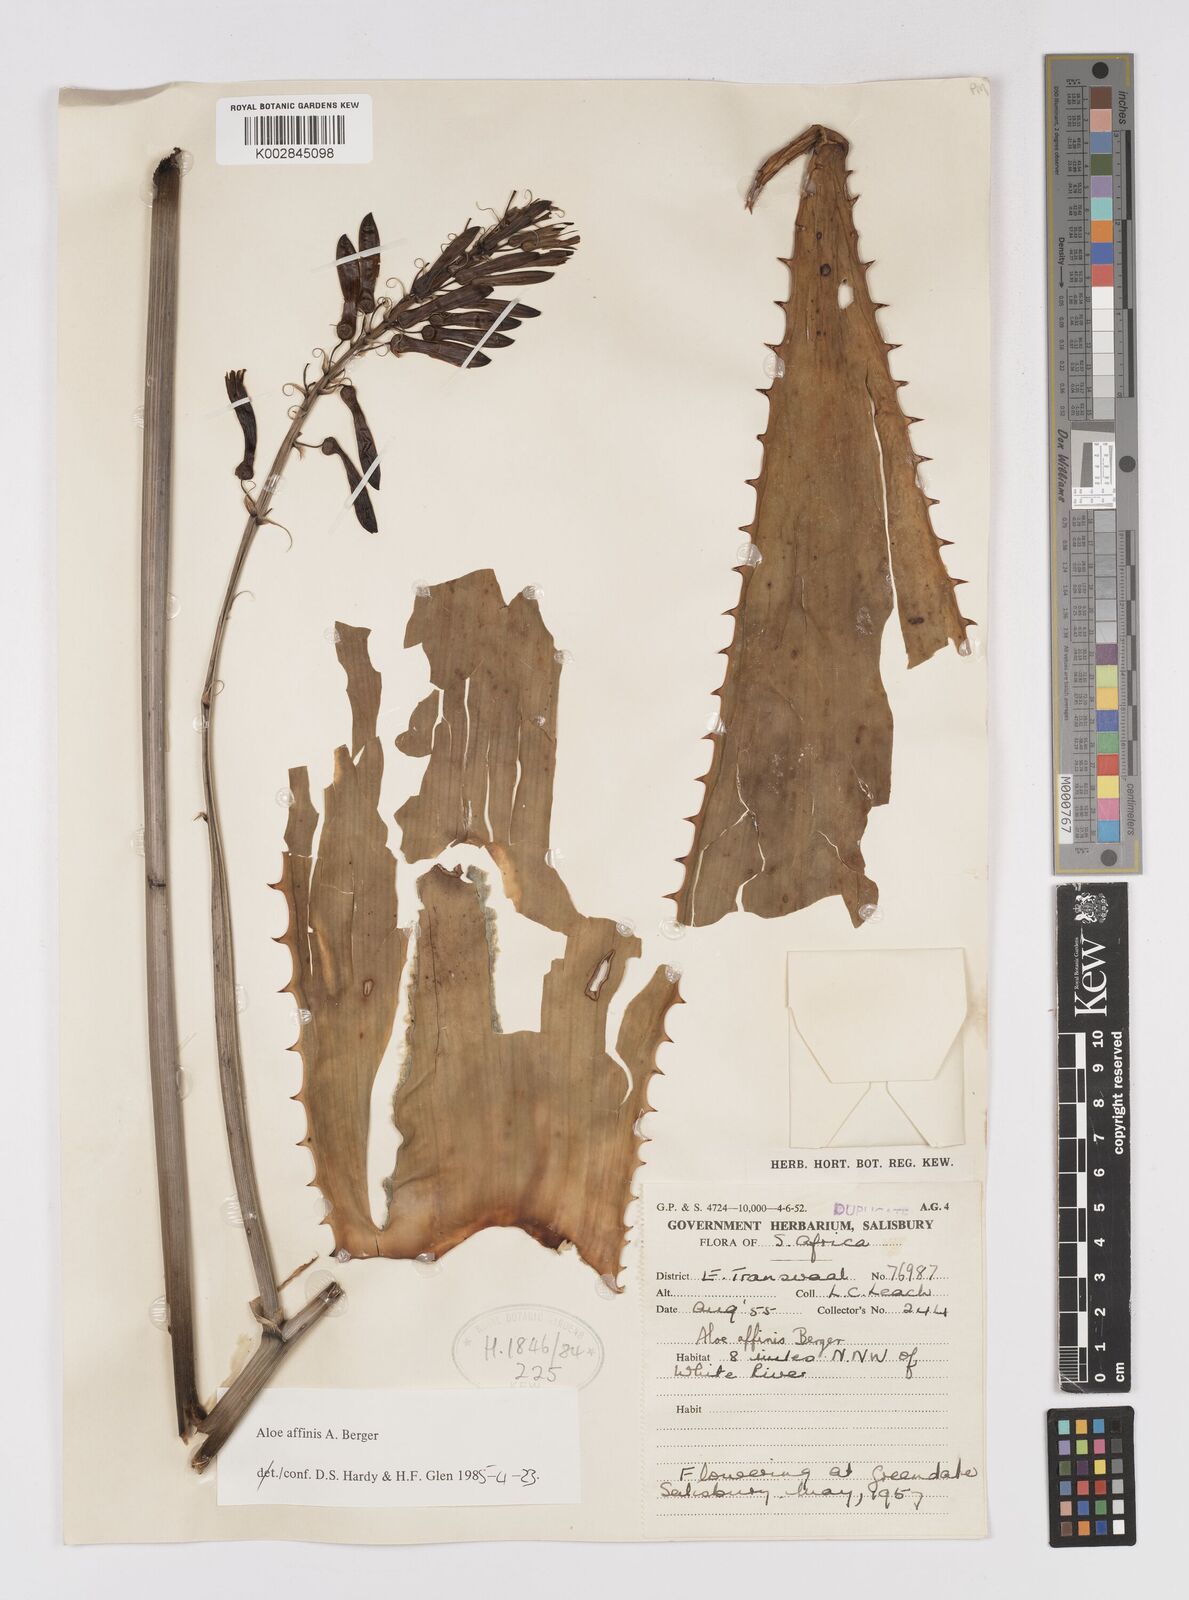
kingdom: Plantae
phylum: Tracheophyta
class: Liliopsida
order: Asparagales
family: Asphodelaceae
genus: Aloe
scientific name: Aloe affinis
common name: Spotted aloe
